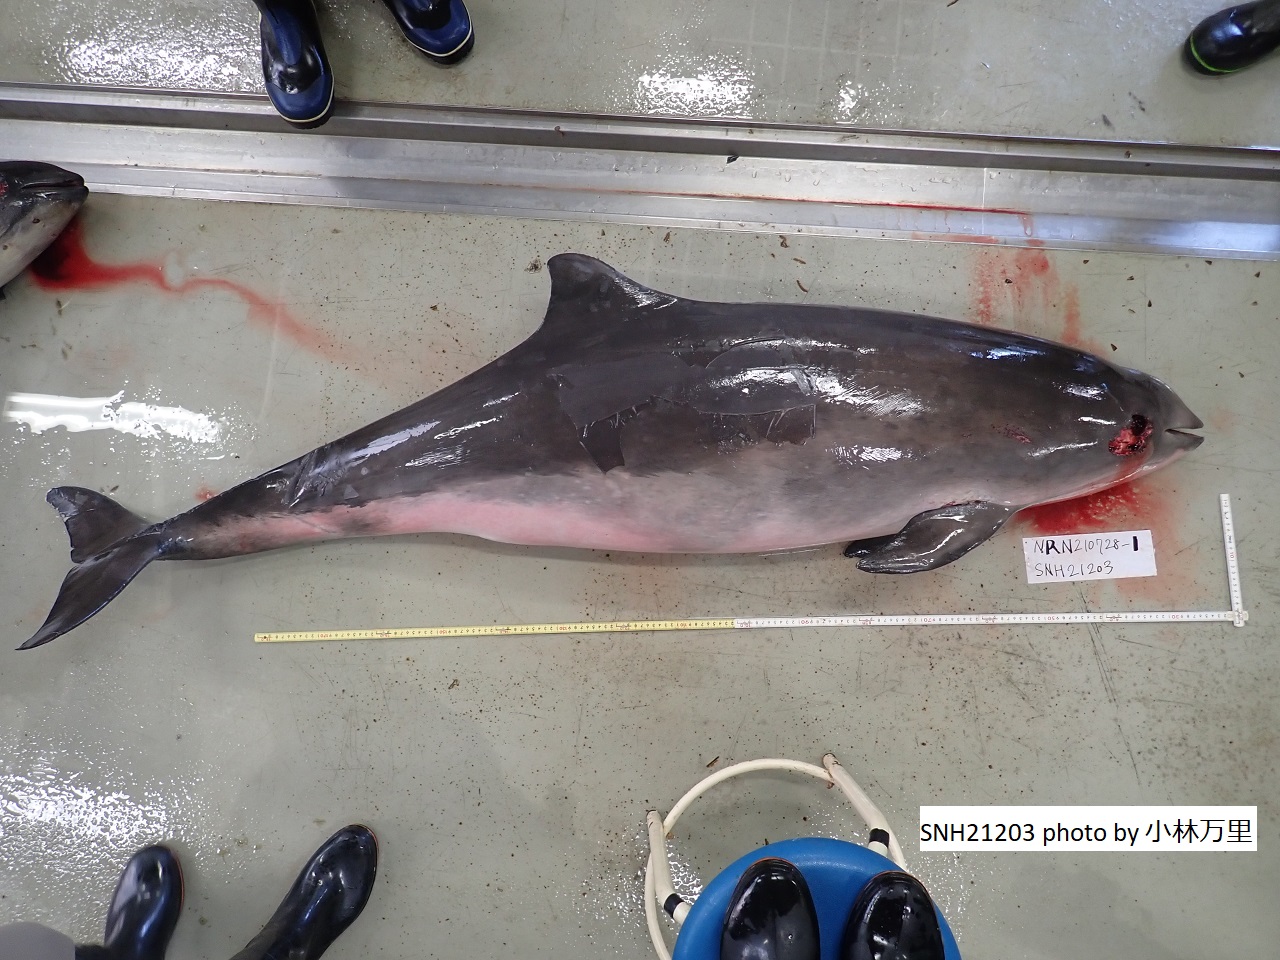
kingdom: Animalia
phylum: Chordata
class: Mammalia
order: Cetacea
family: Phocoenidae
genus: Phocoena
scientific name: Phocoena phocoena
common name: Harbour porpoise
